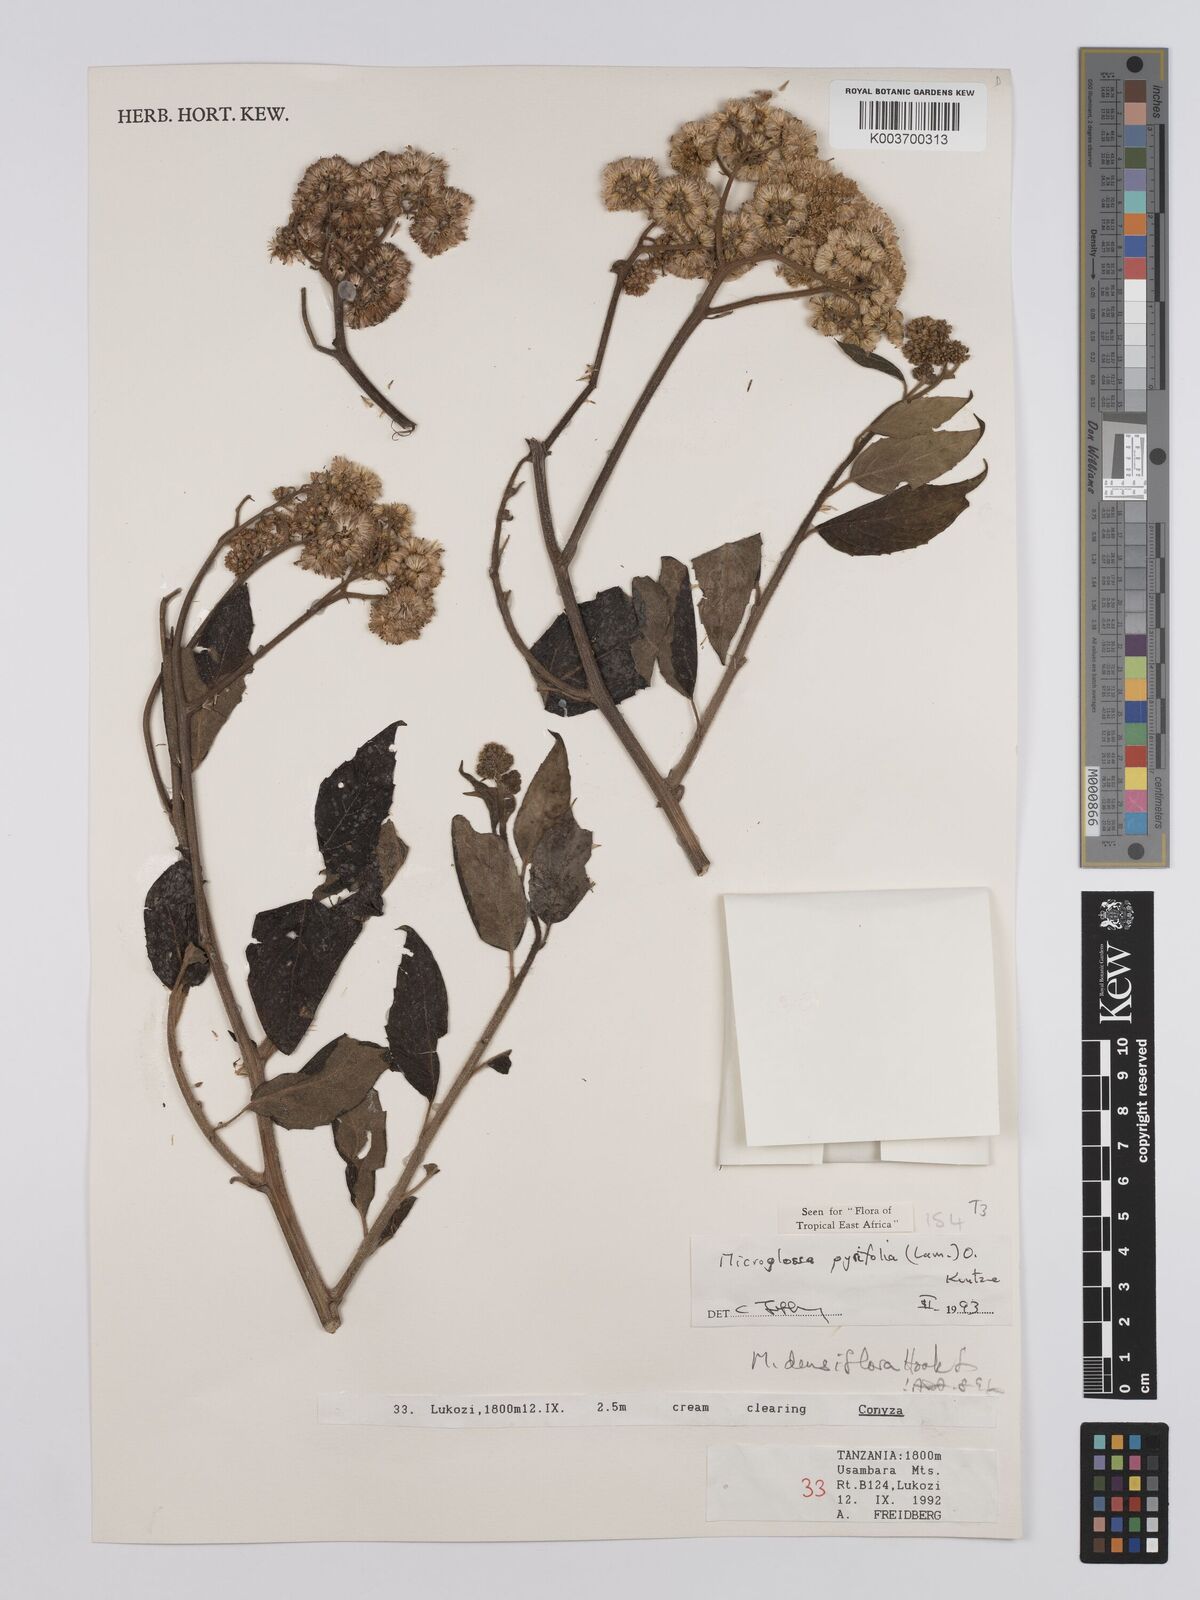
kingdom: Plantae
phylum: Tracheophyta
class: Magnoliopsida
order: Asterales
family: Asteraceae
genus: Microglossa
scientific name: Microglossa densiflora
